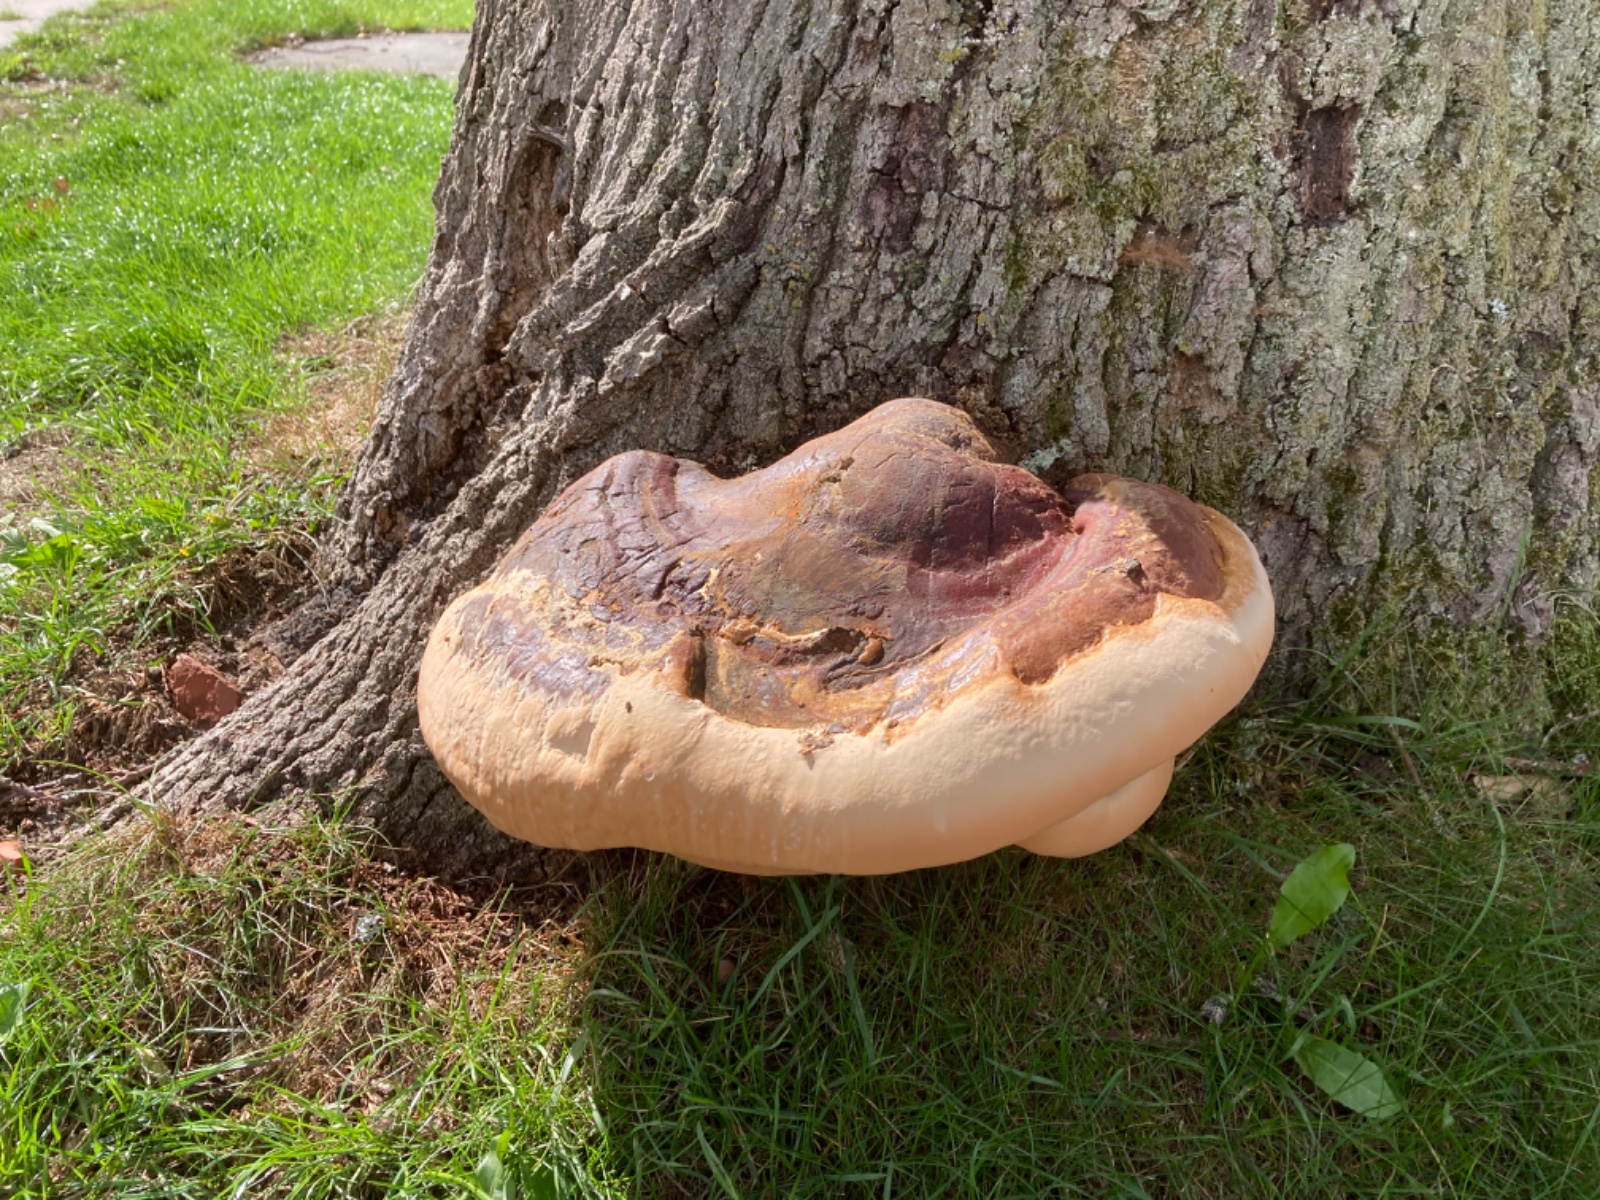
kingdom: Fungi
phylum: Basidiomycota
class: Agaricomycetes
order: Polyporales
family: Polyporaceae
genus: Ganoderma
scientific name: Ganoderma resinaceum
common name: gyldenbrun lakporesvamp
